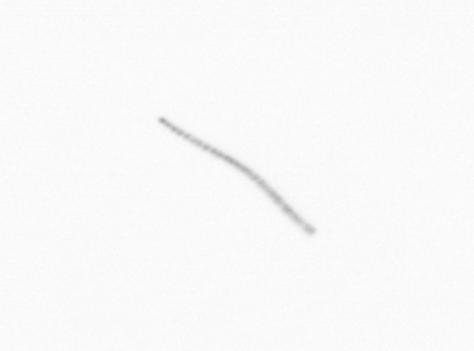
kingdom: Chromista
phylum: Ochrophyta
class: Bacillariophyceae
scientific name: Bacillariophyceae
